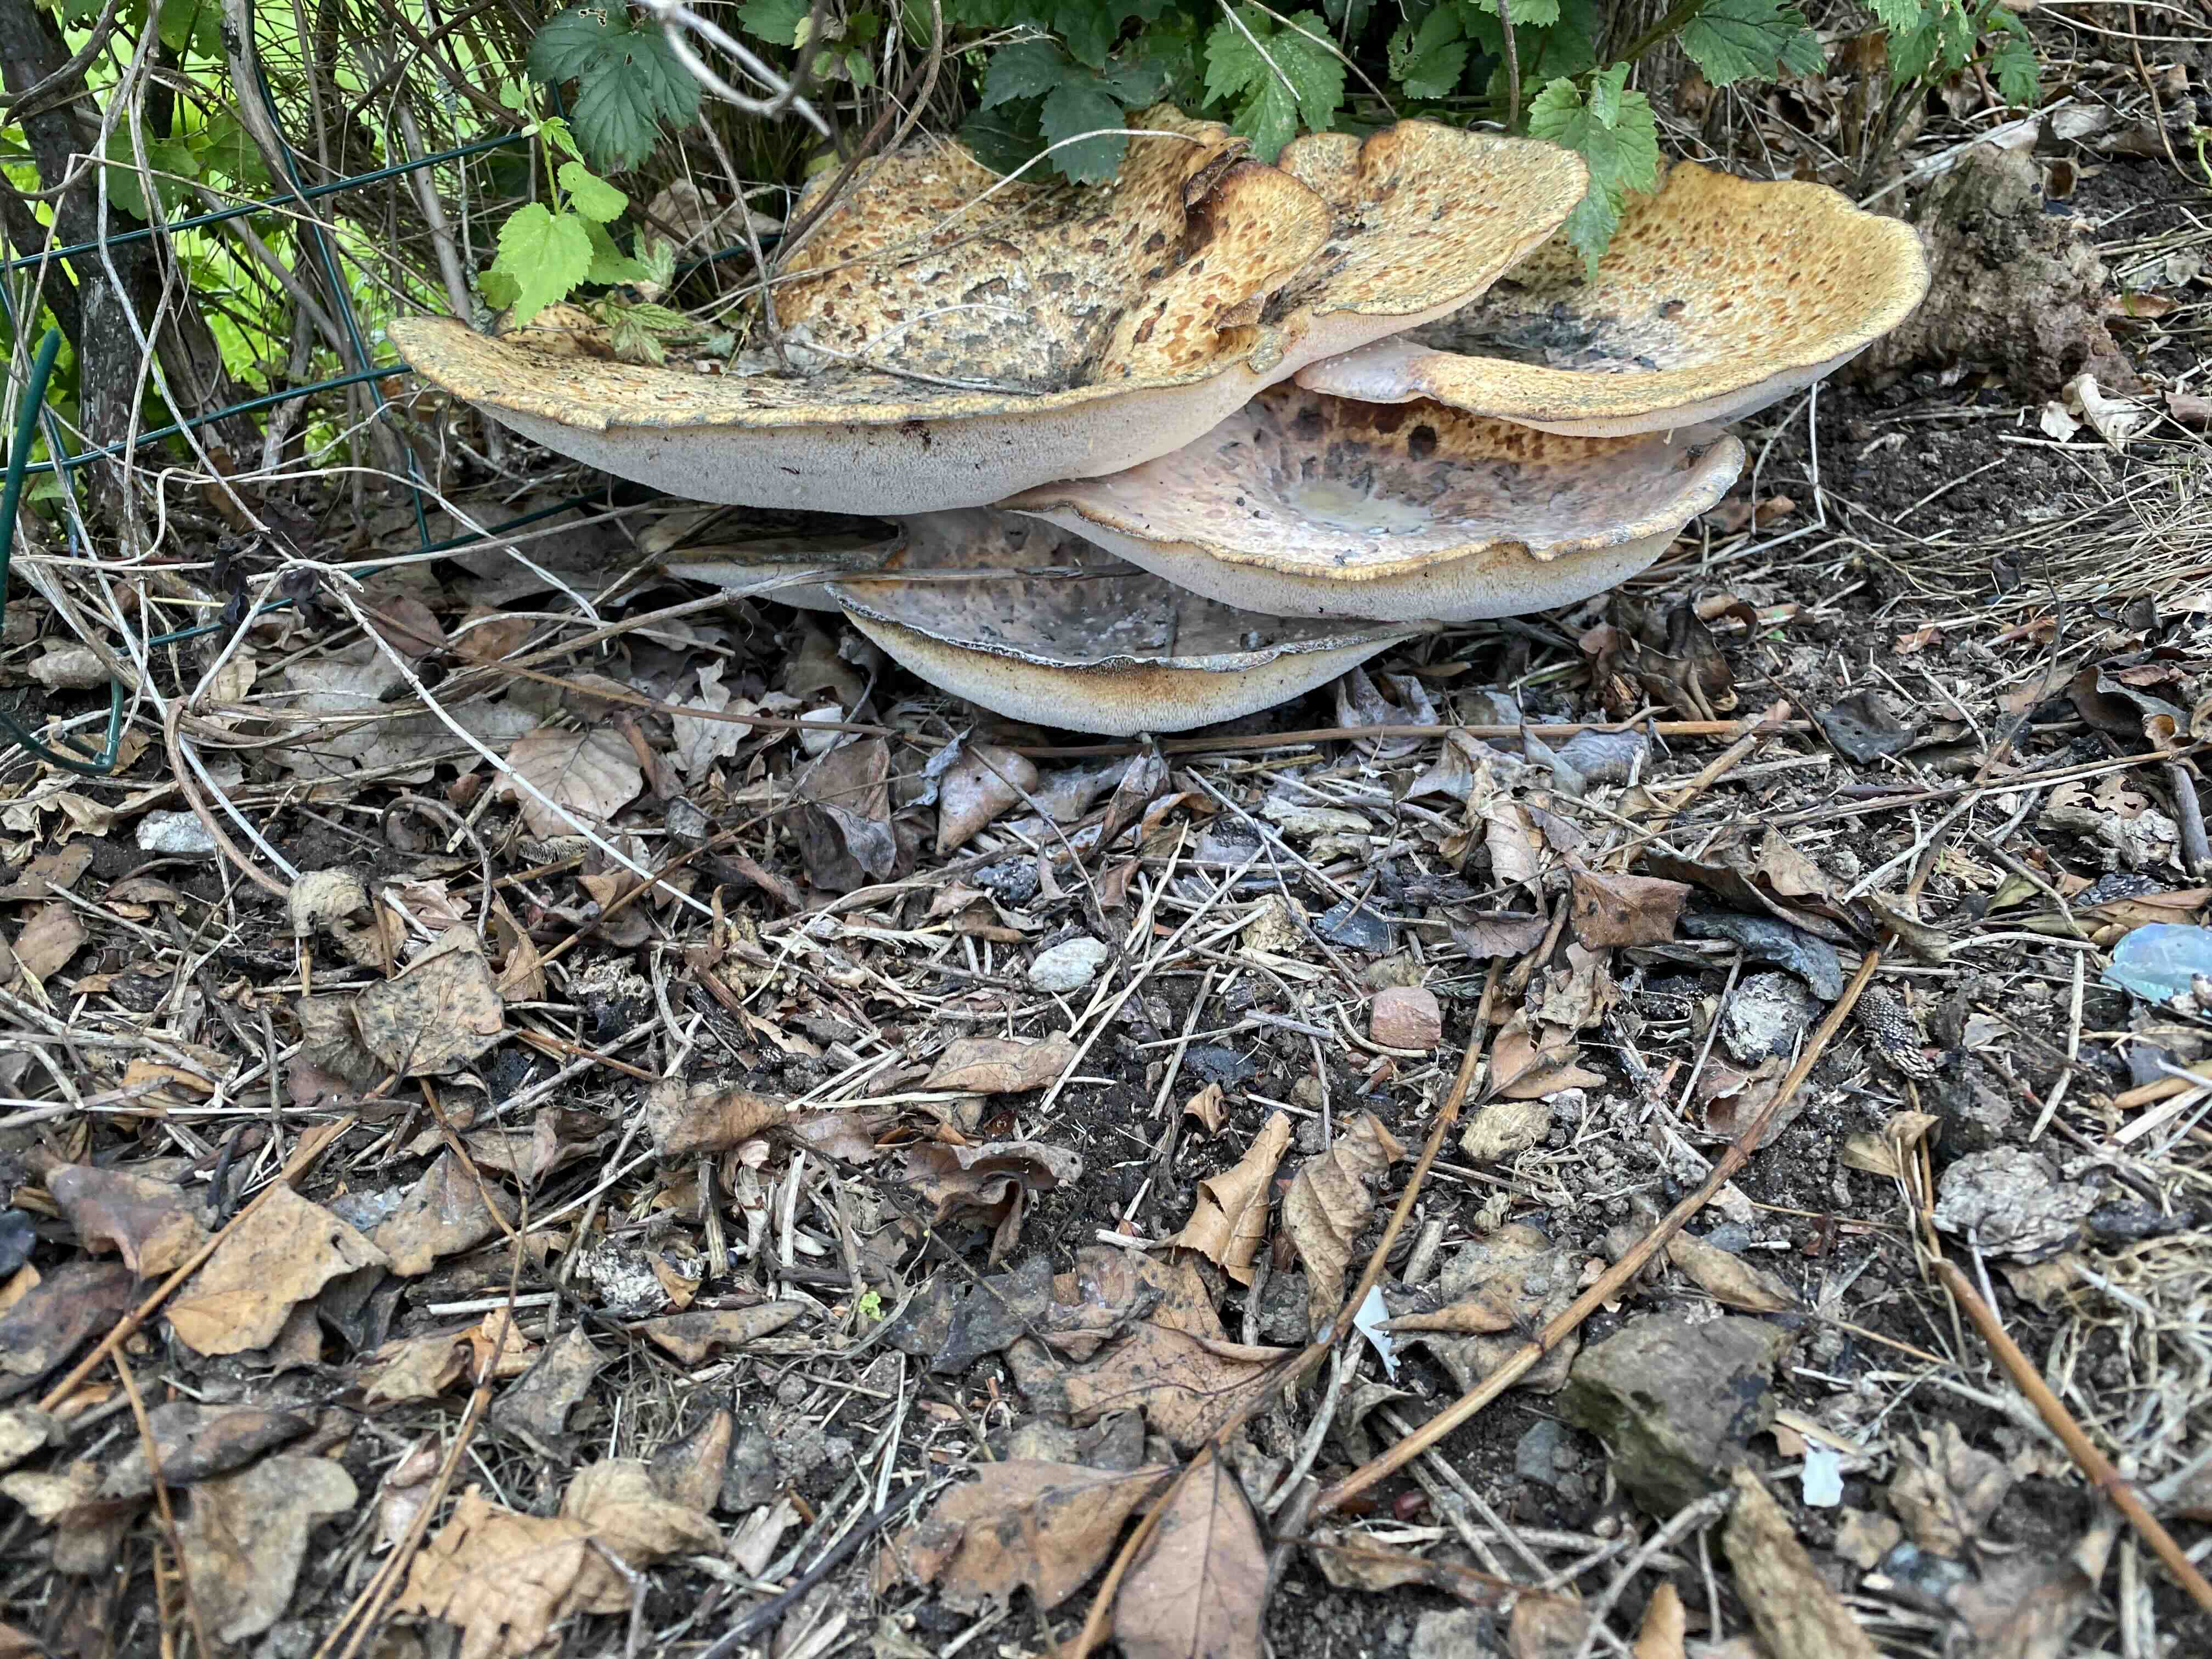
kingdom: Fungi
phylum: Basidiomycota
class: Agaricomycetes
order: Polyporales
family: Polyporaceae
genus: Cerioporus
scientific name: Cerioporus squamosus
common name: skællet stilkporesvamp
